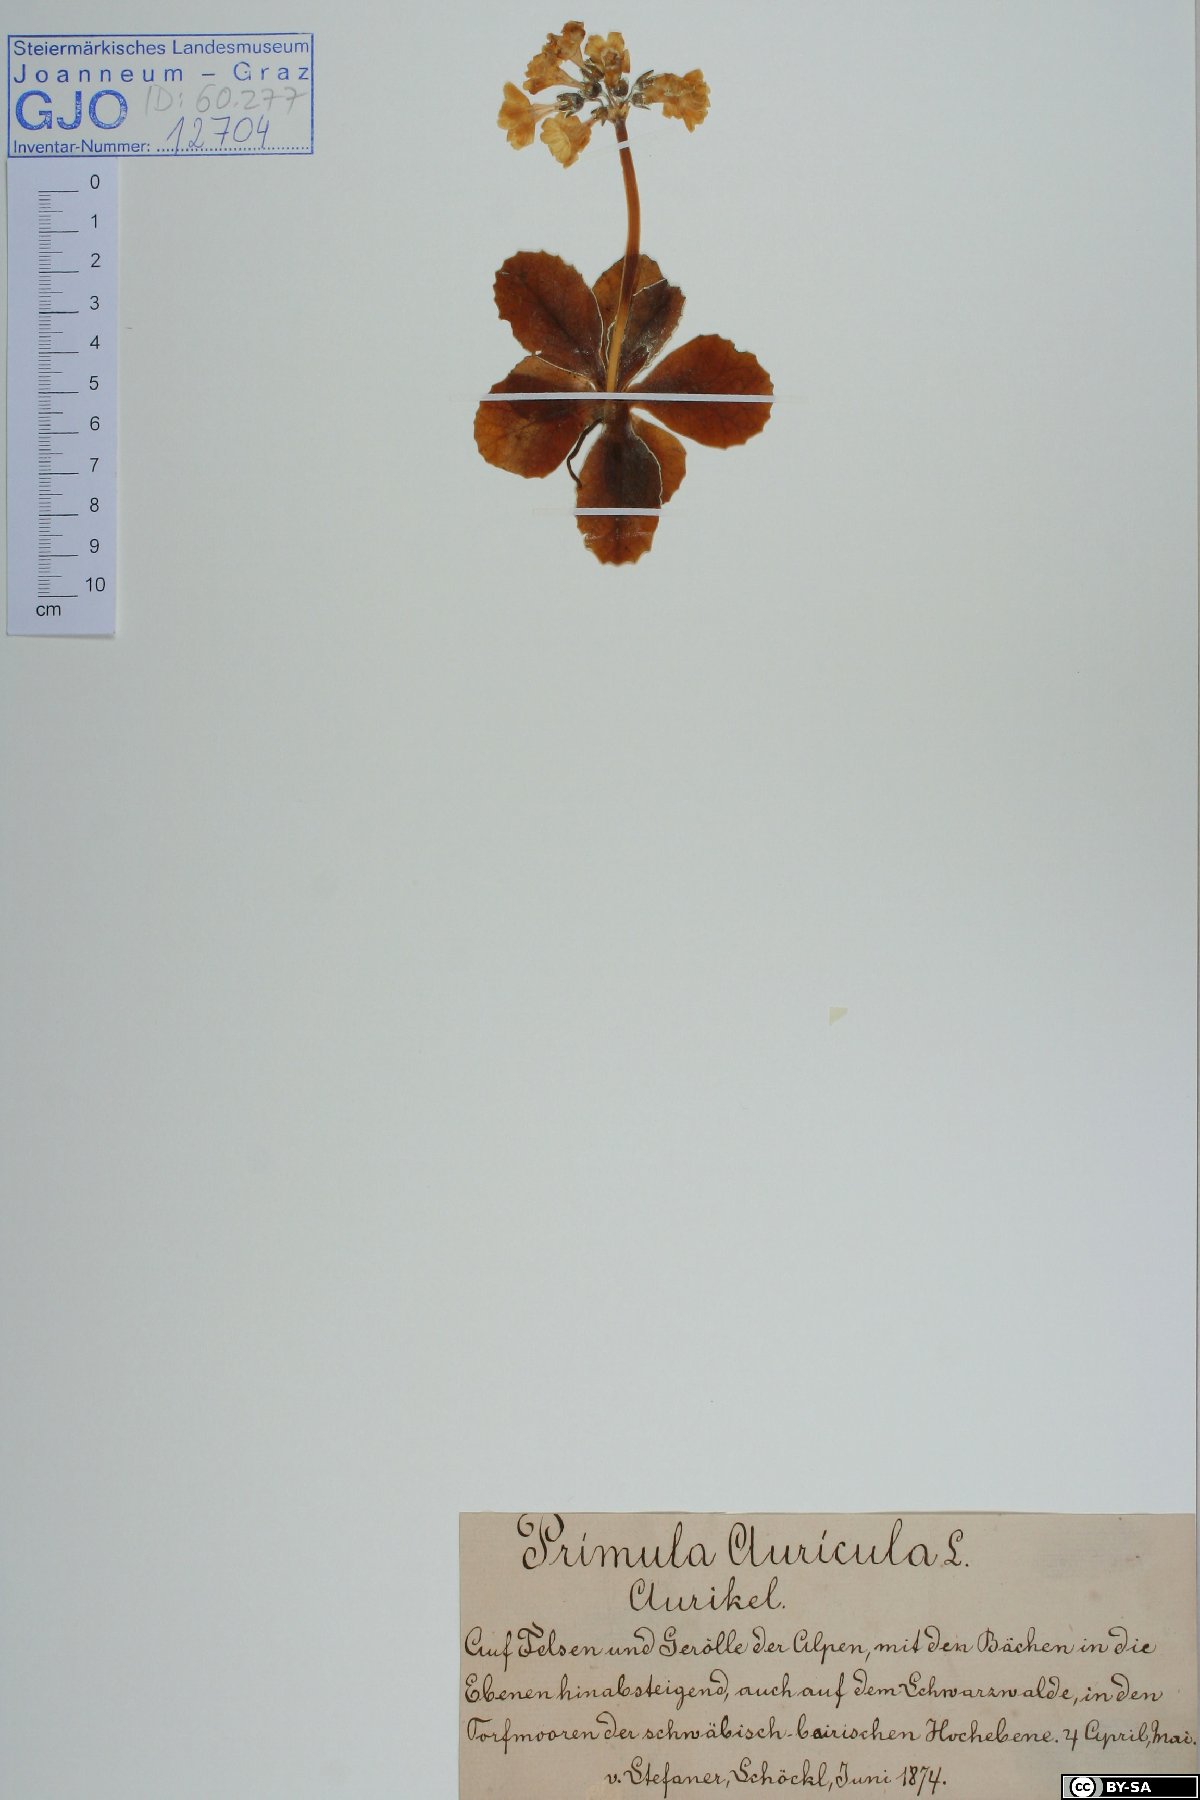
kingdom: Plantae
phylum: Tracheophyta
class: Magnoliopsida
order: Ericales
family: Primulaceae
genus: Primula
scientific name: Primula auricula
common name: Auricula
